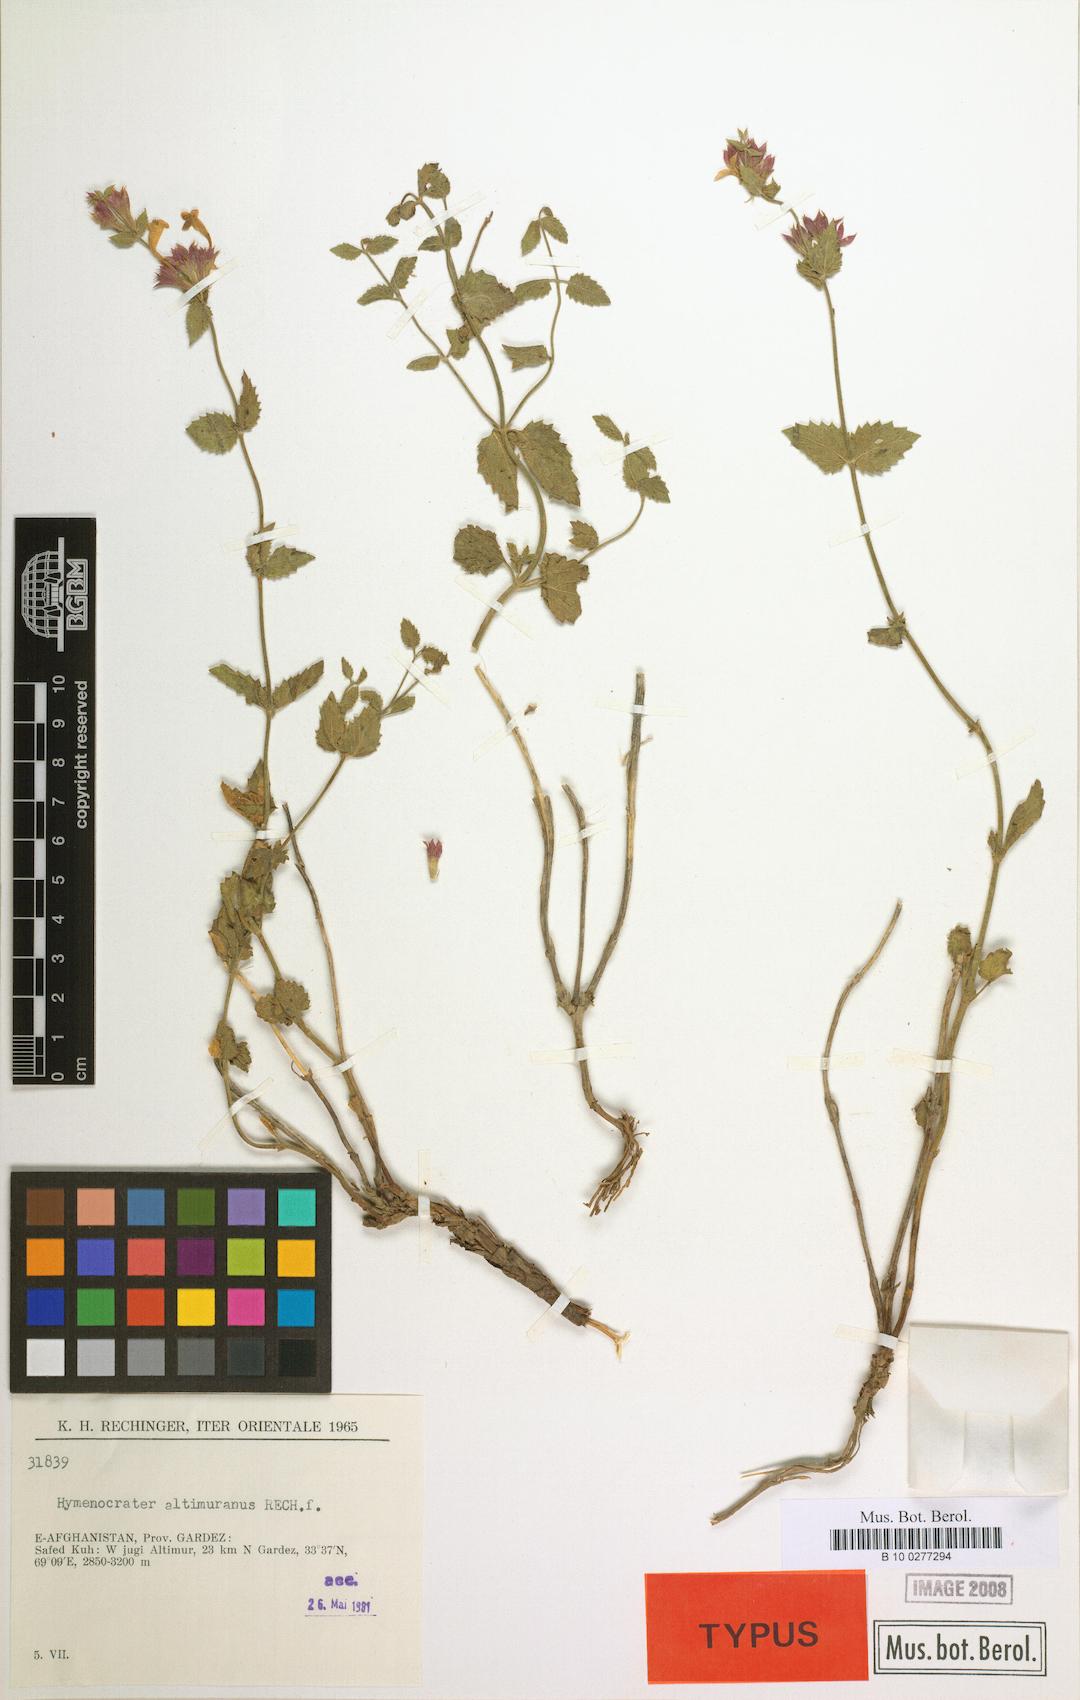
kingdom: Plantae
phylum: Tracheophyta
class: Magnoliopsida
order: Lamiales
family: Lamiaceae
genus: Nepeta
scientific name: Nepeta altimurana
